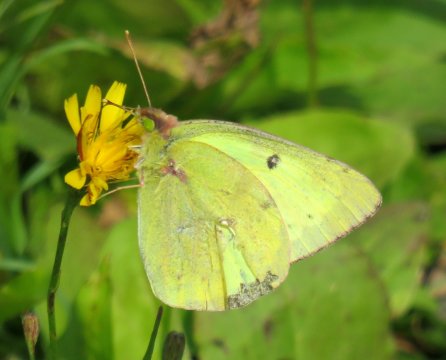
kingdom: Animalia
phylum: Arthropoda
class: Insecta
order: Lepidoptera
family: Pieridae
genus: Colias
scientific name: Colias philodice
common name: Clouded Sulphur
